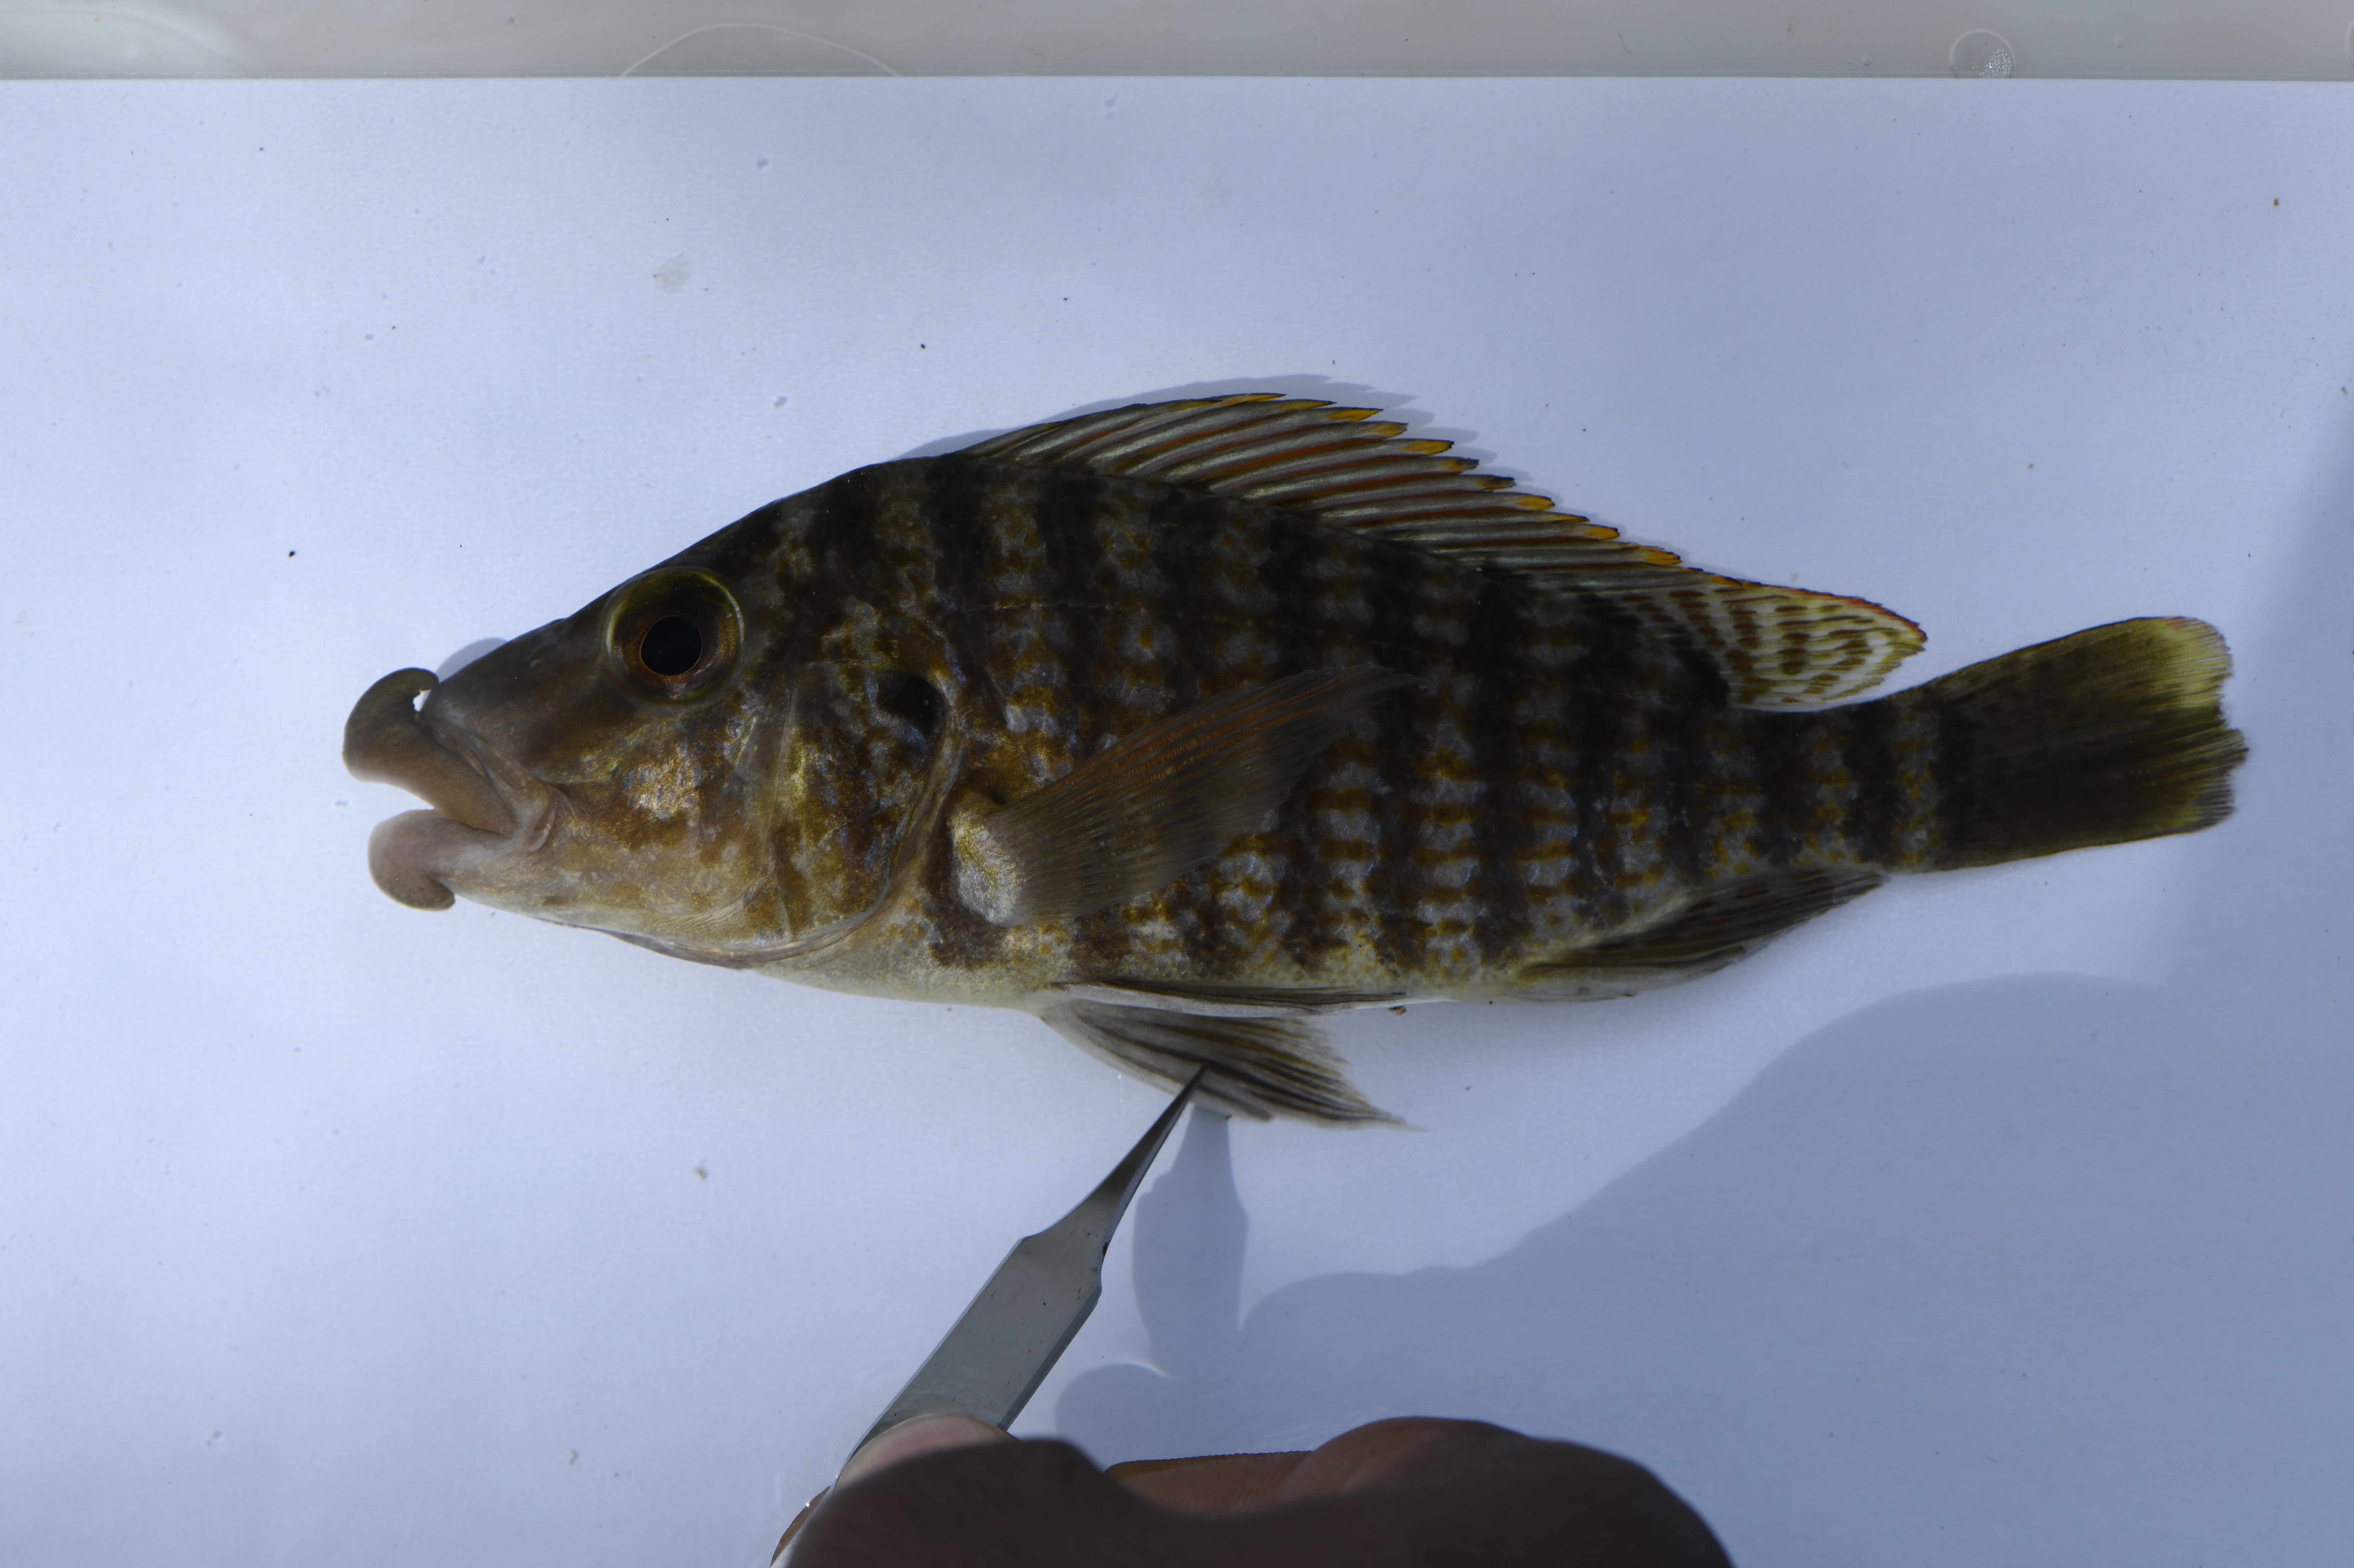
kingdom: Animalia
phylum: Chordata
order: Perciformes
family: Cichlidae
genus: Lobochilotes
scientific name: Lobochilotes labiatus
